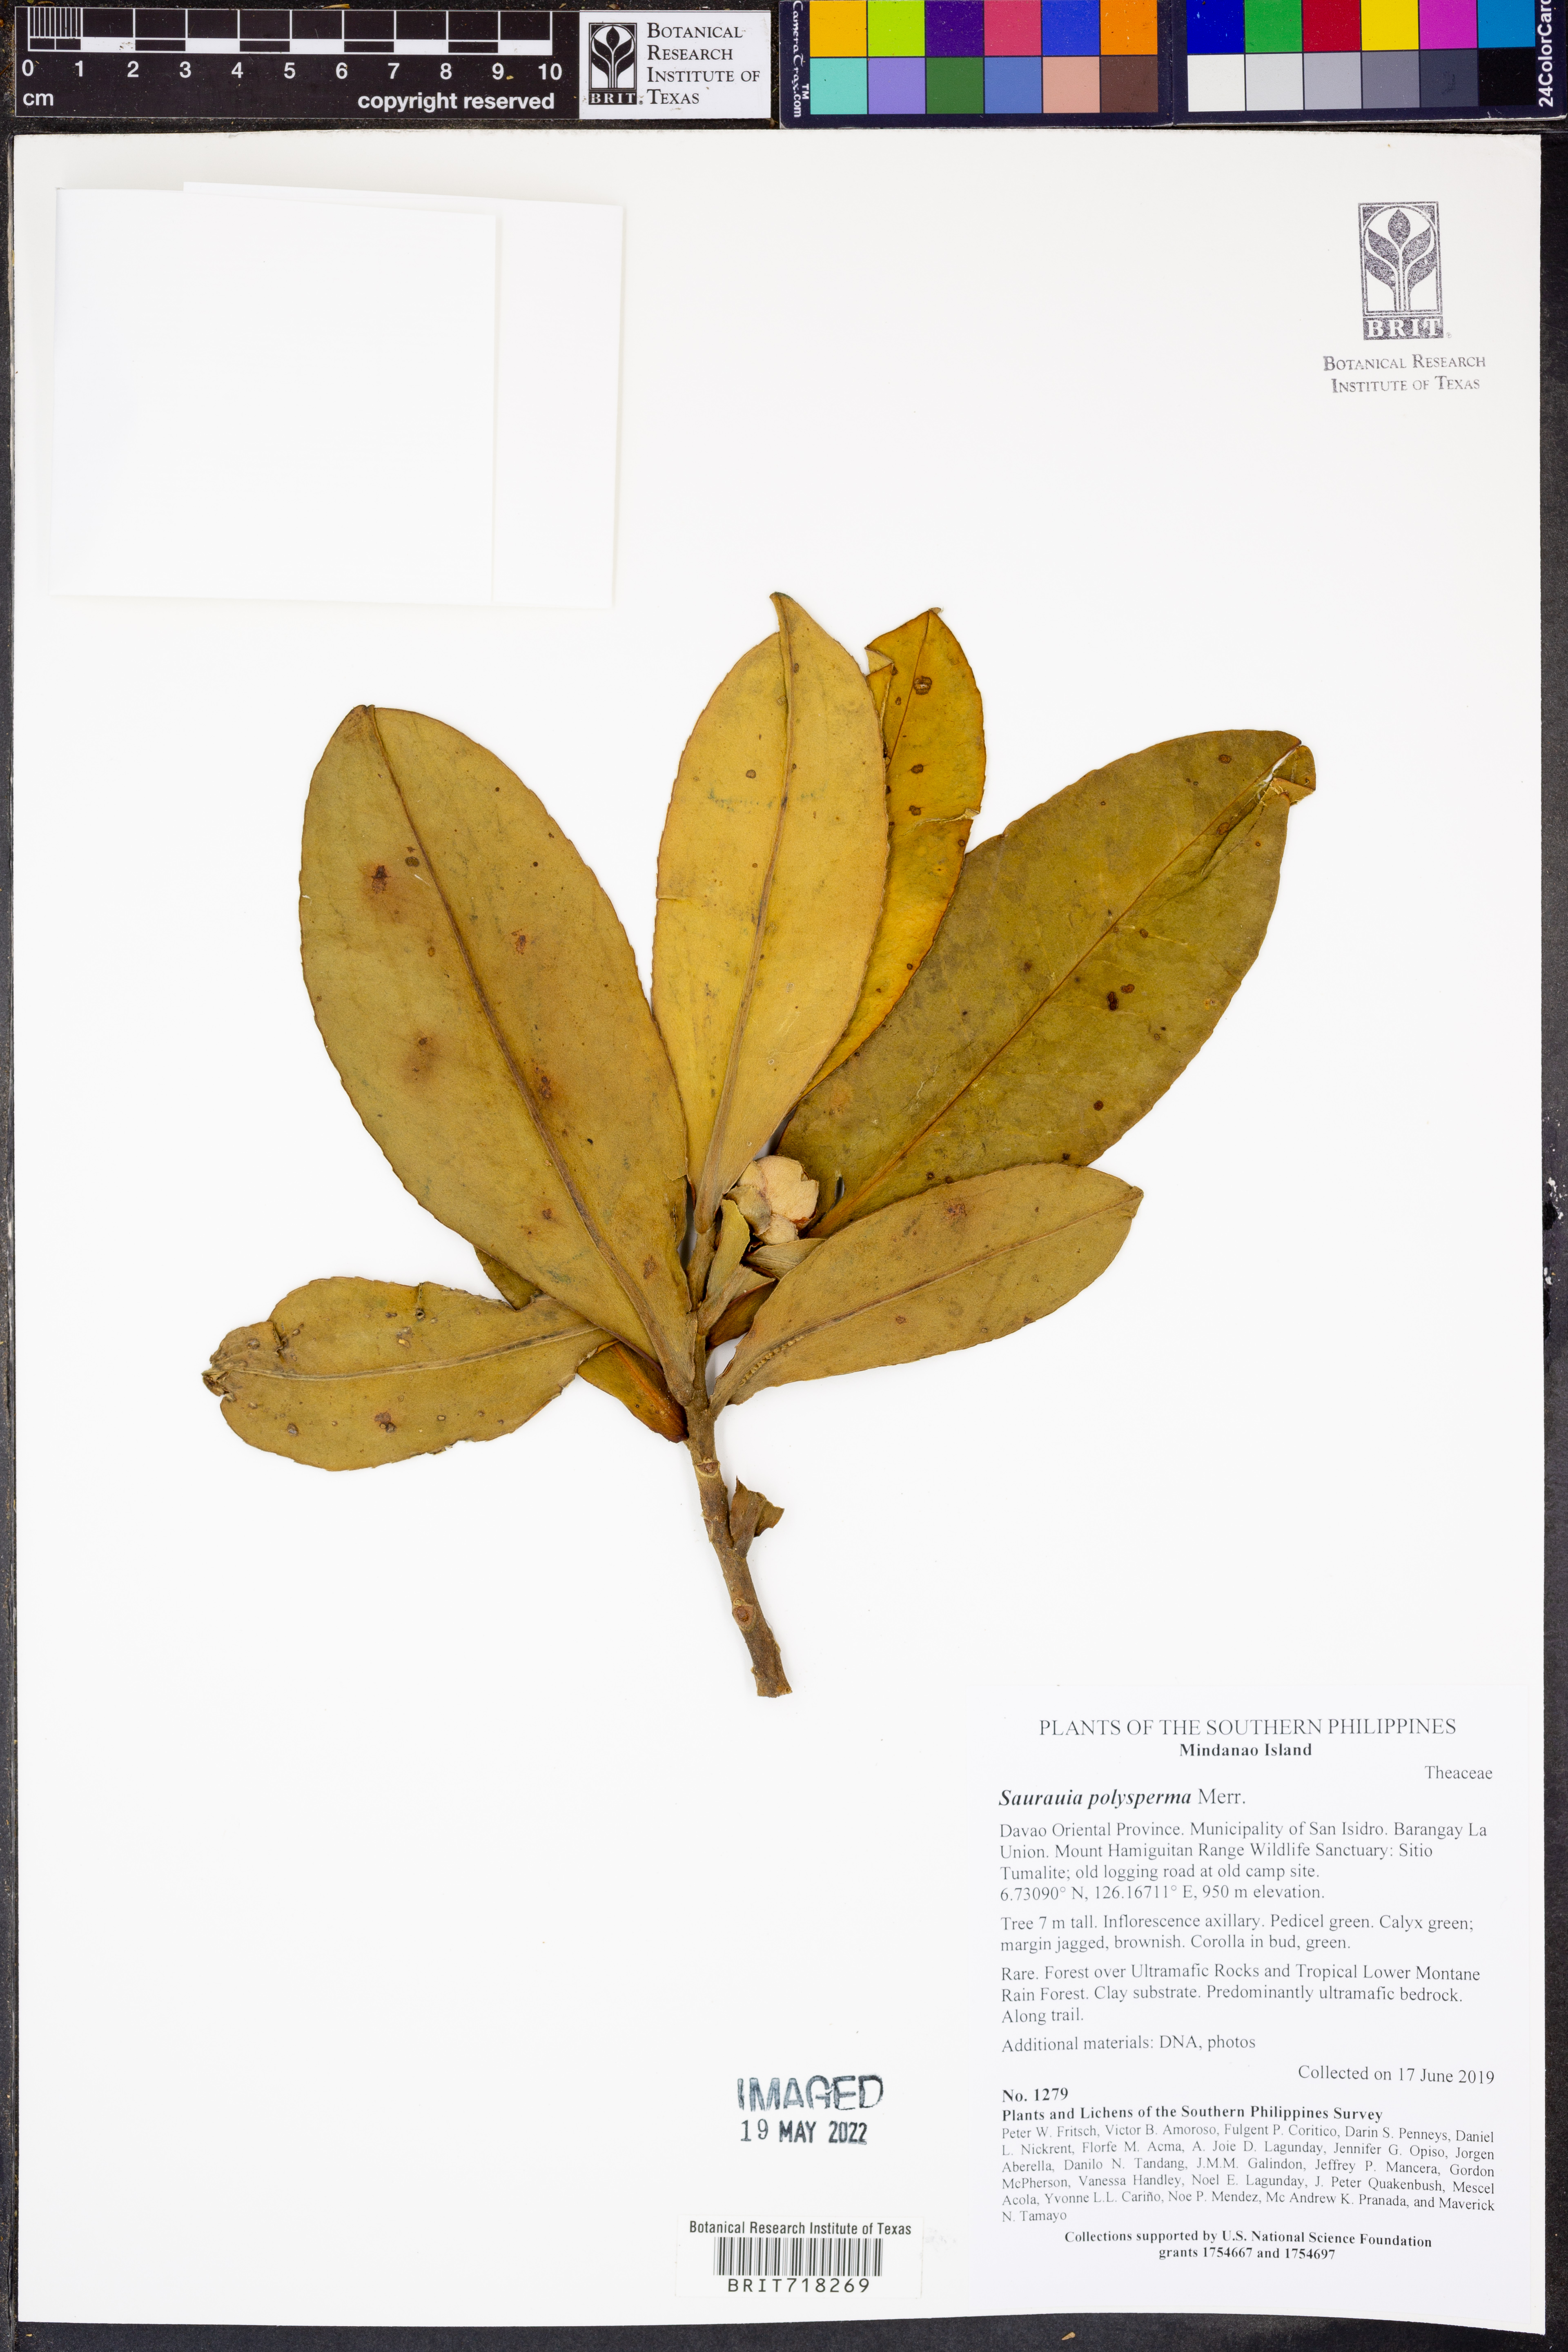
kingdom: Plantae
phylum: Tracheophyta
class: Magnoliopsida
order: Ericales
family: Actinidiaceae
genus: Saurauia
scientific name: Saurauia polysperma
